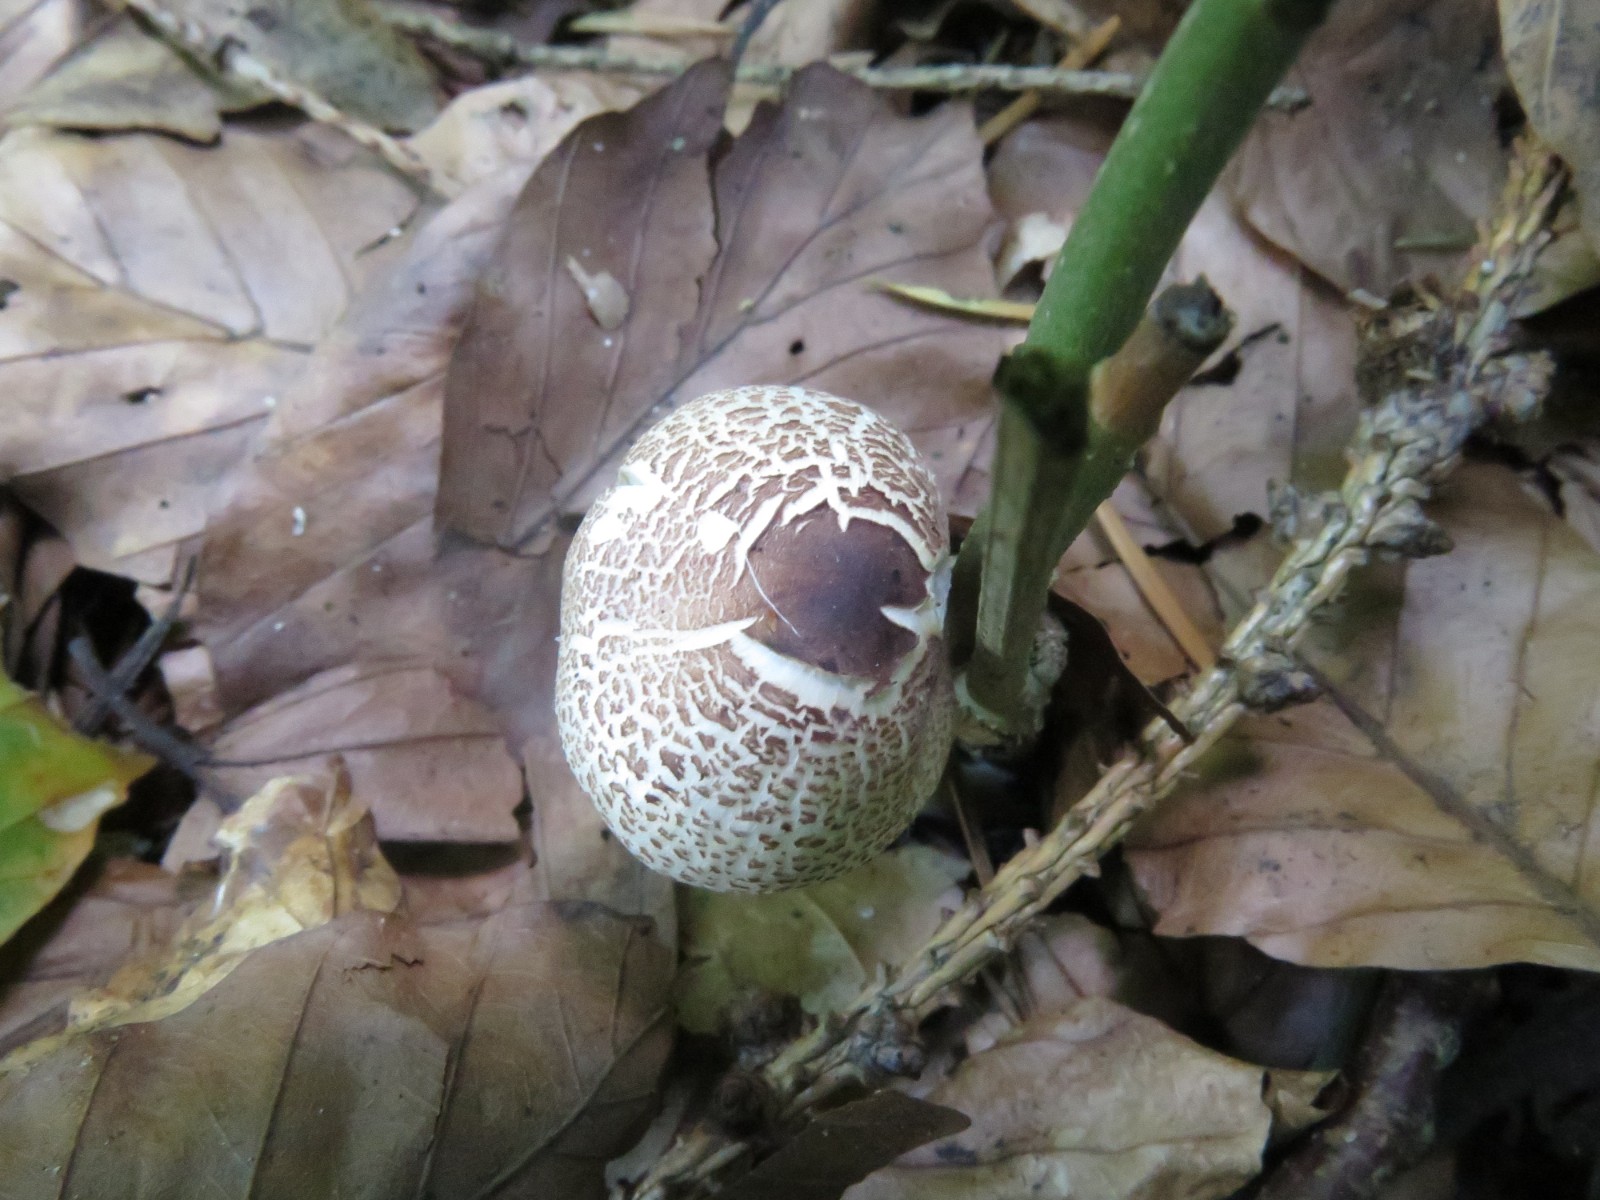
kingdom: Fungi
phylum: Basidiomycota
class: Agaricomycetes
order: Agaricales
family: Agaricaceae
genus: Lepiota
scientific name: Lepiota cristata
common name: stinkende parasolhat
